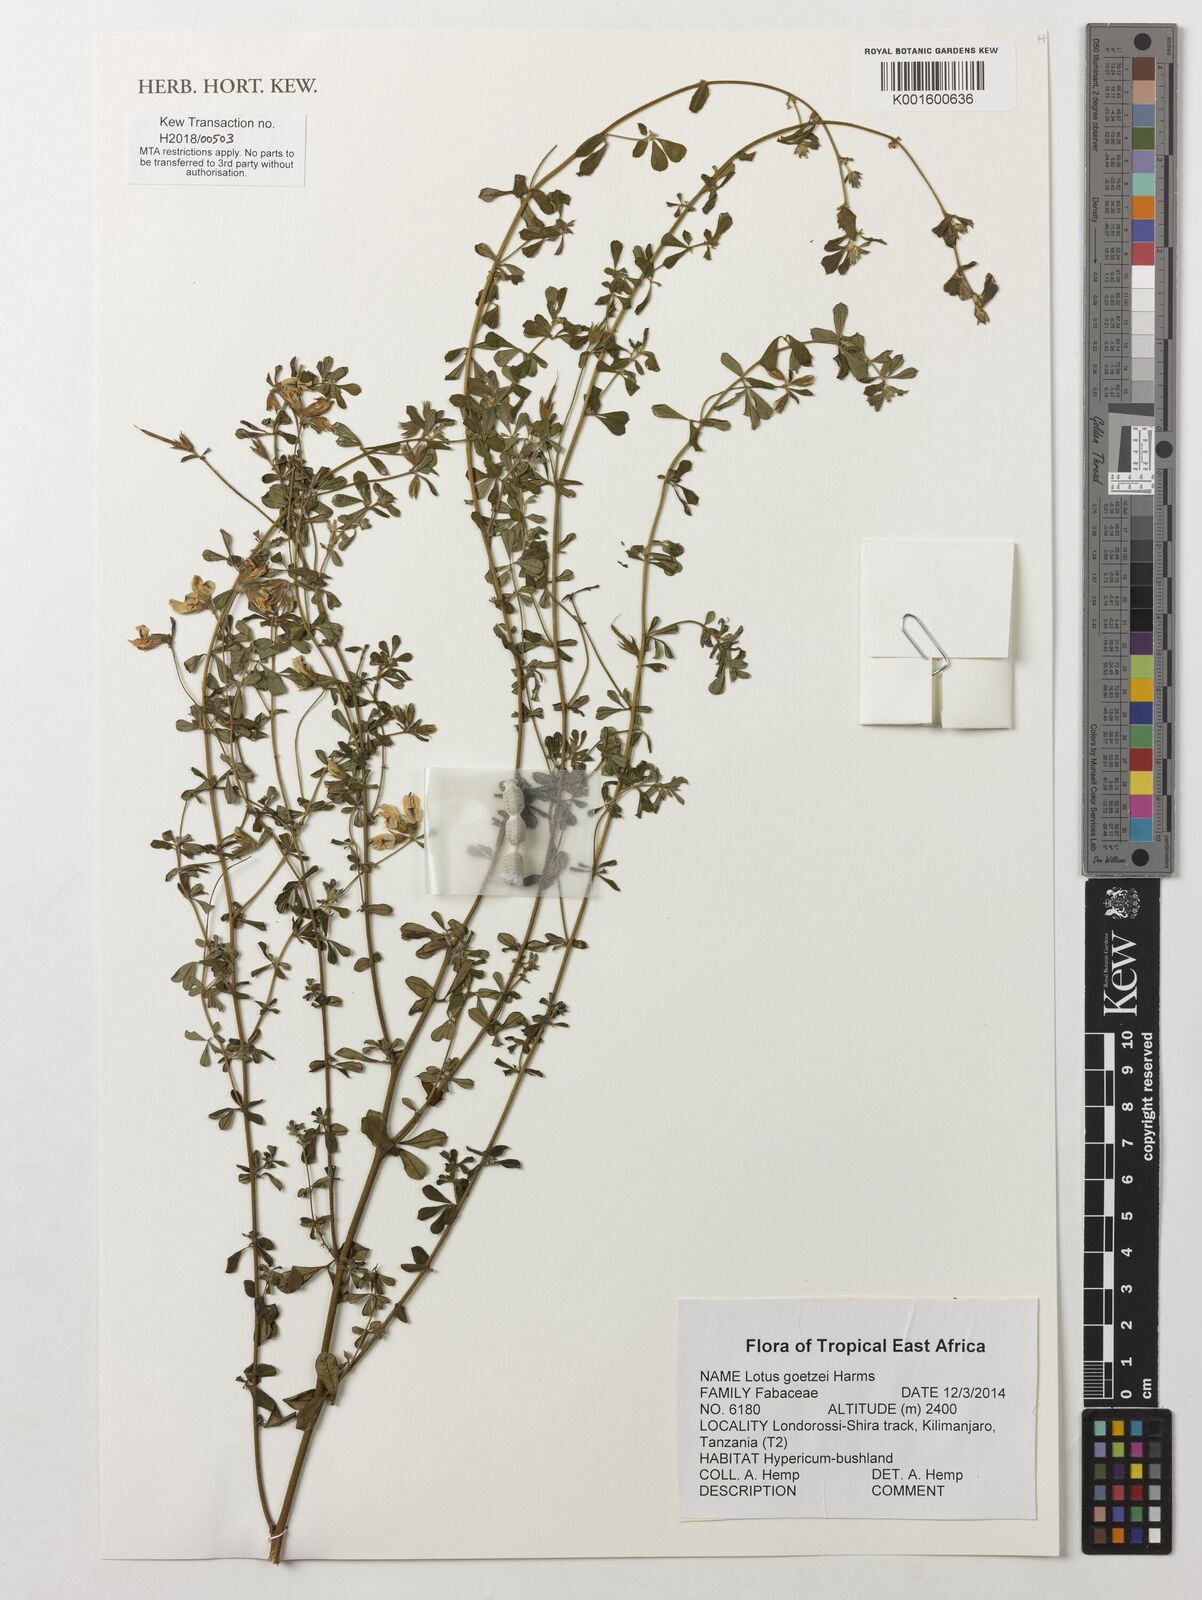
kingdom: Plantae
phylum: Tracheophyta
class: Magnoliopsida
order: Fabales
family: Fabaceae
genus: Lotus
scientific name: Lotus goetzei
